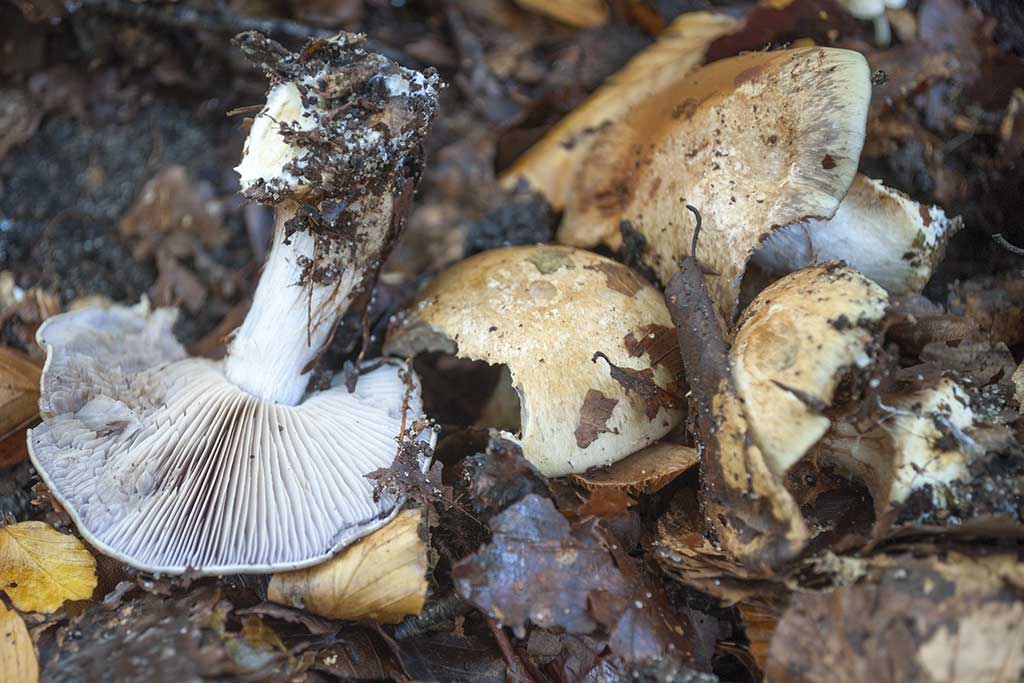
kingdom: Fungi
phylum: Basidiomycota
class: Agaricomycetes
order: Agaricales
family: Cortinariaceae
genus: Phlegmacium
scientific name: Phlegmacium luhmannii
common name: musegrå slørhat
